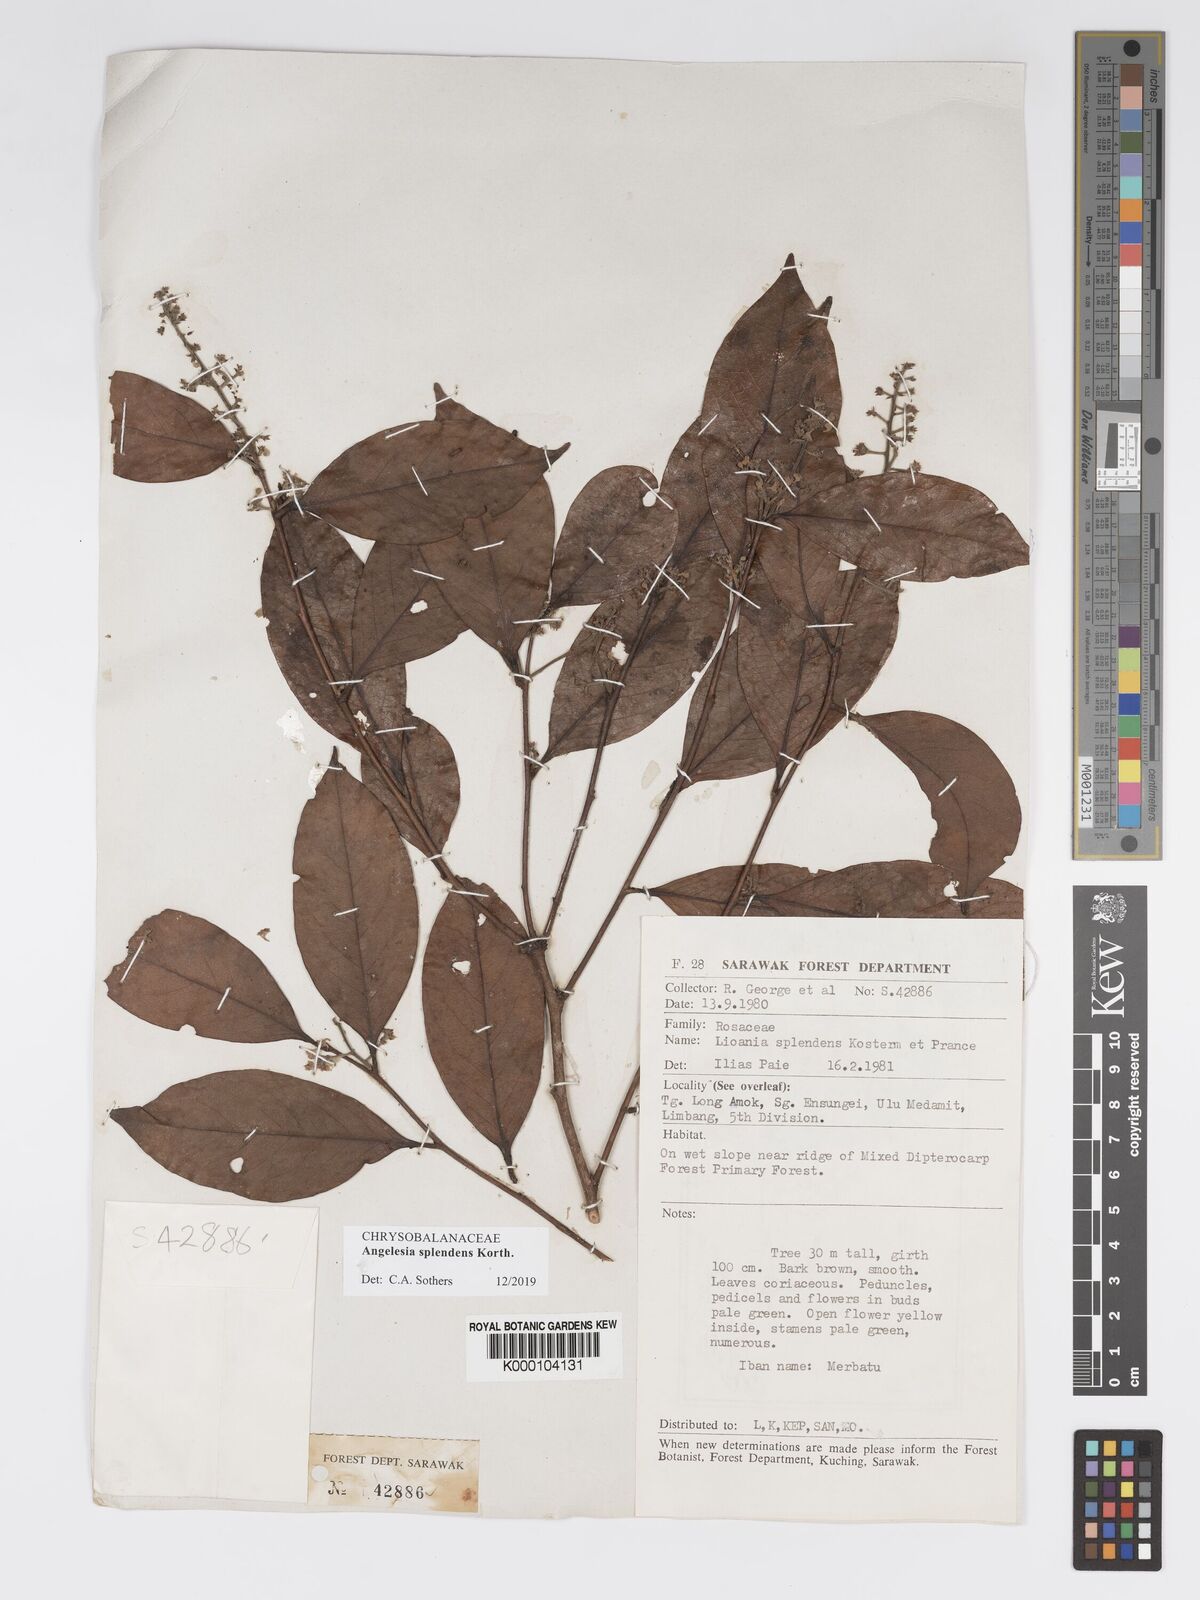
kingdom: Plantae
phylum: Tracheophyta
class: Magnoliopsida
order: Malpighiales
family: Chrysobalanaceae
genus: Angelesia
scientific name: Angelesia splendens
